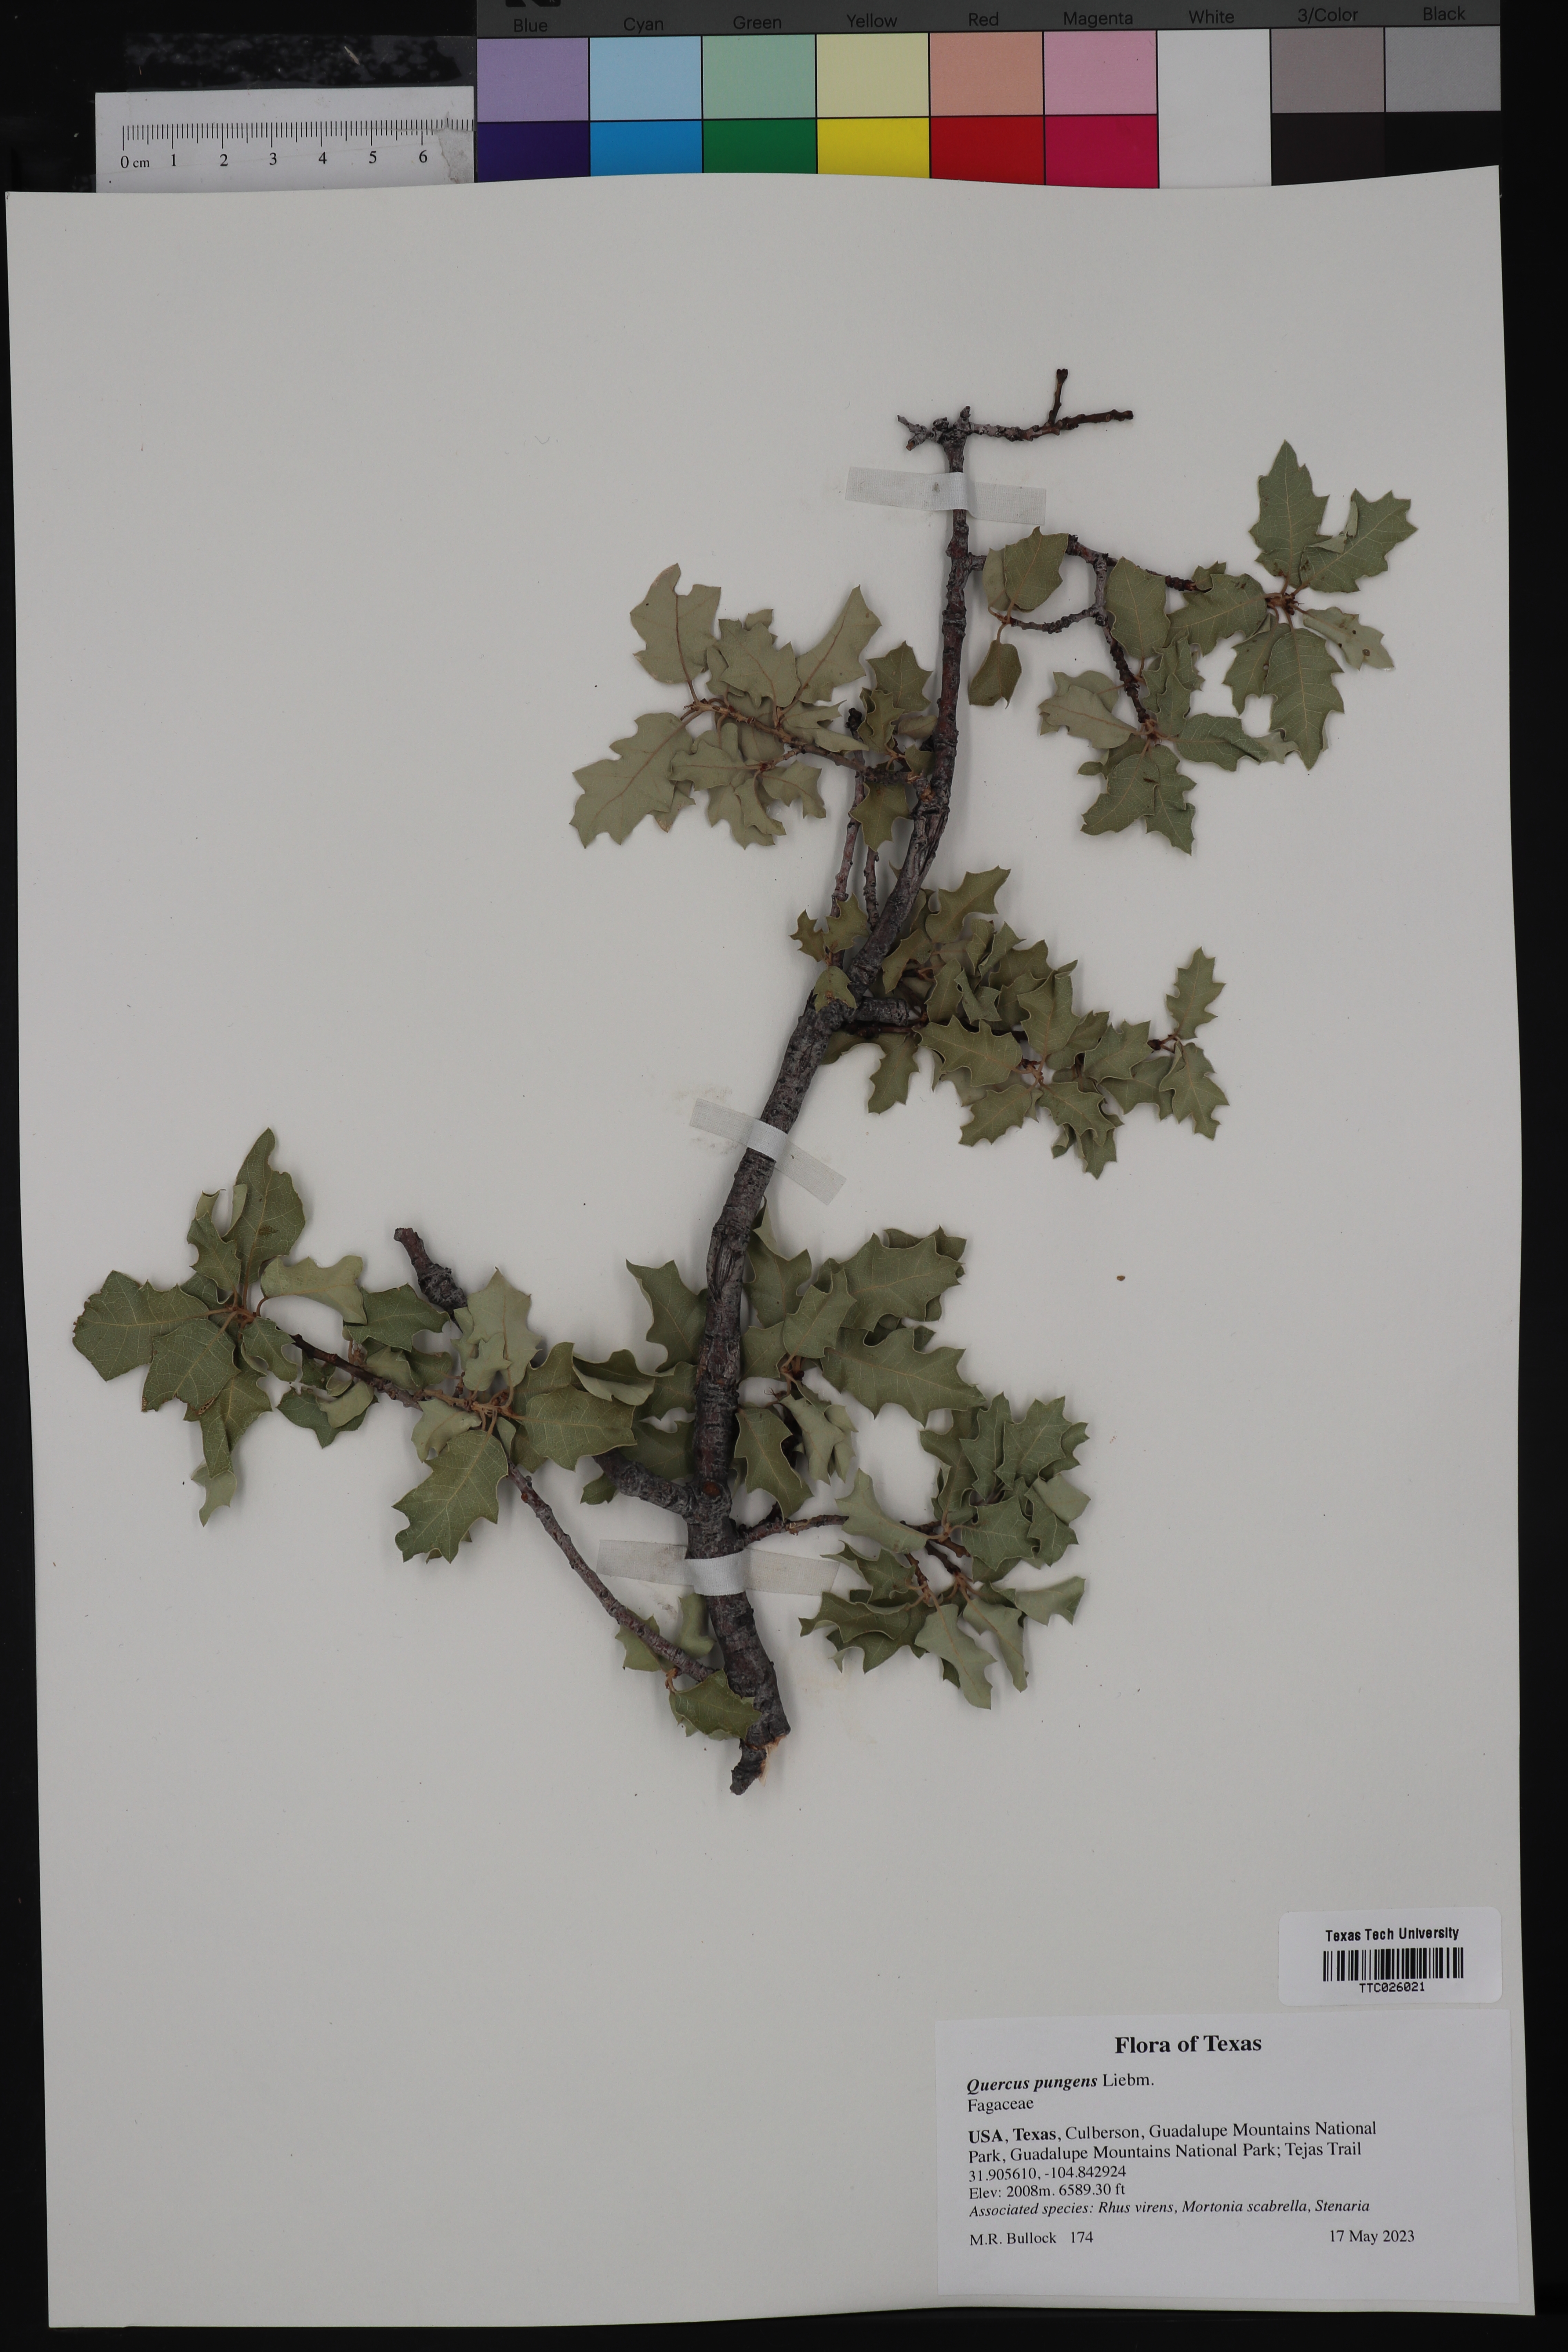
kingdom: Plantae
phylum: Tracheophyta
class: Magnoliopsida
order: Fagales
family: Fagaceae
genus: Quercus
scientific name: Quercus pungens
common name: Pungent oak
